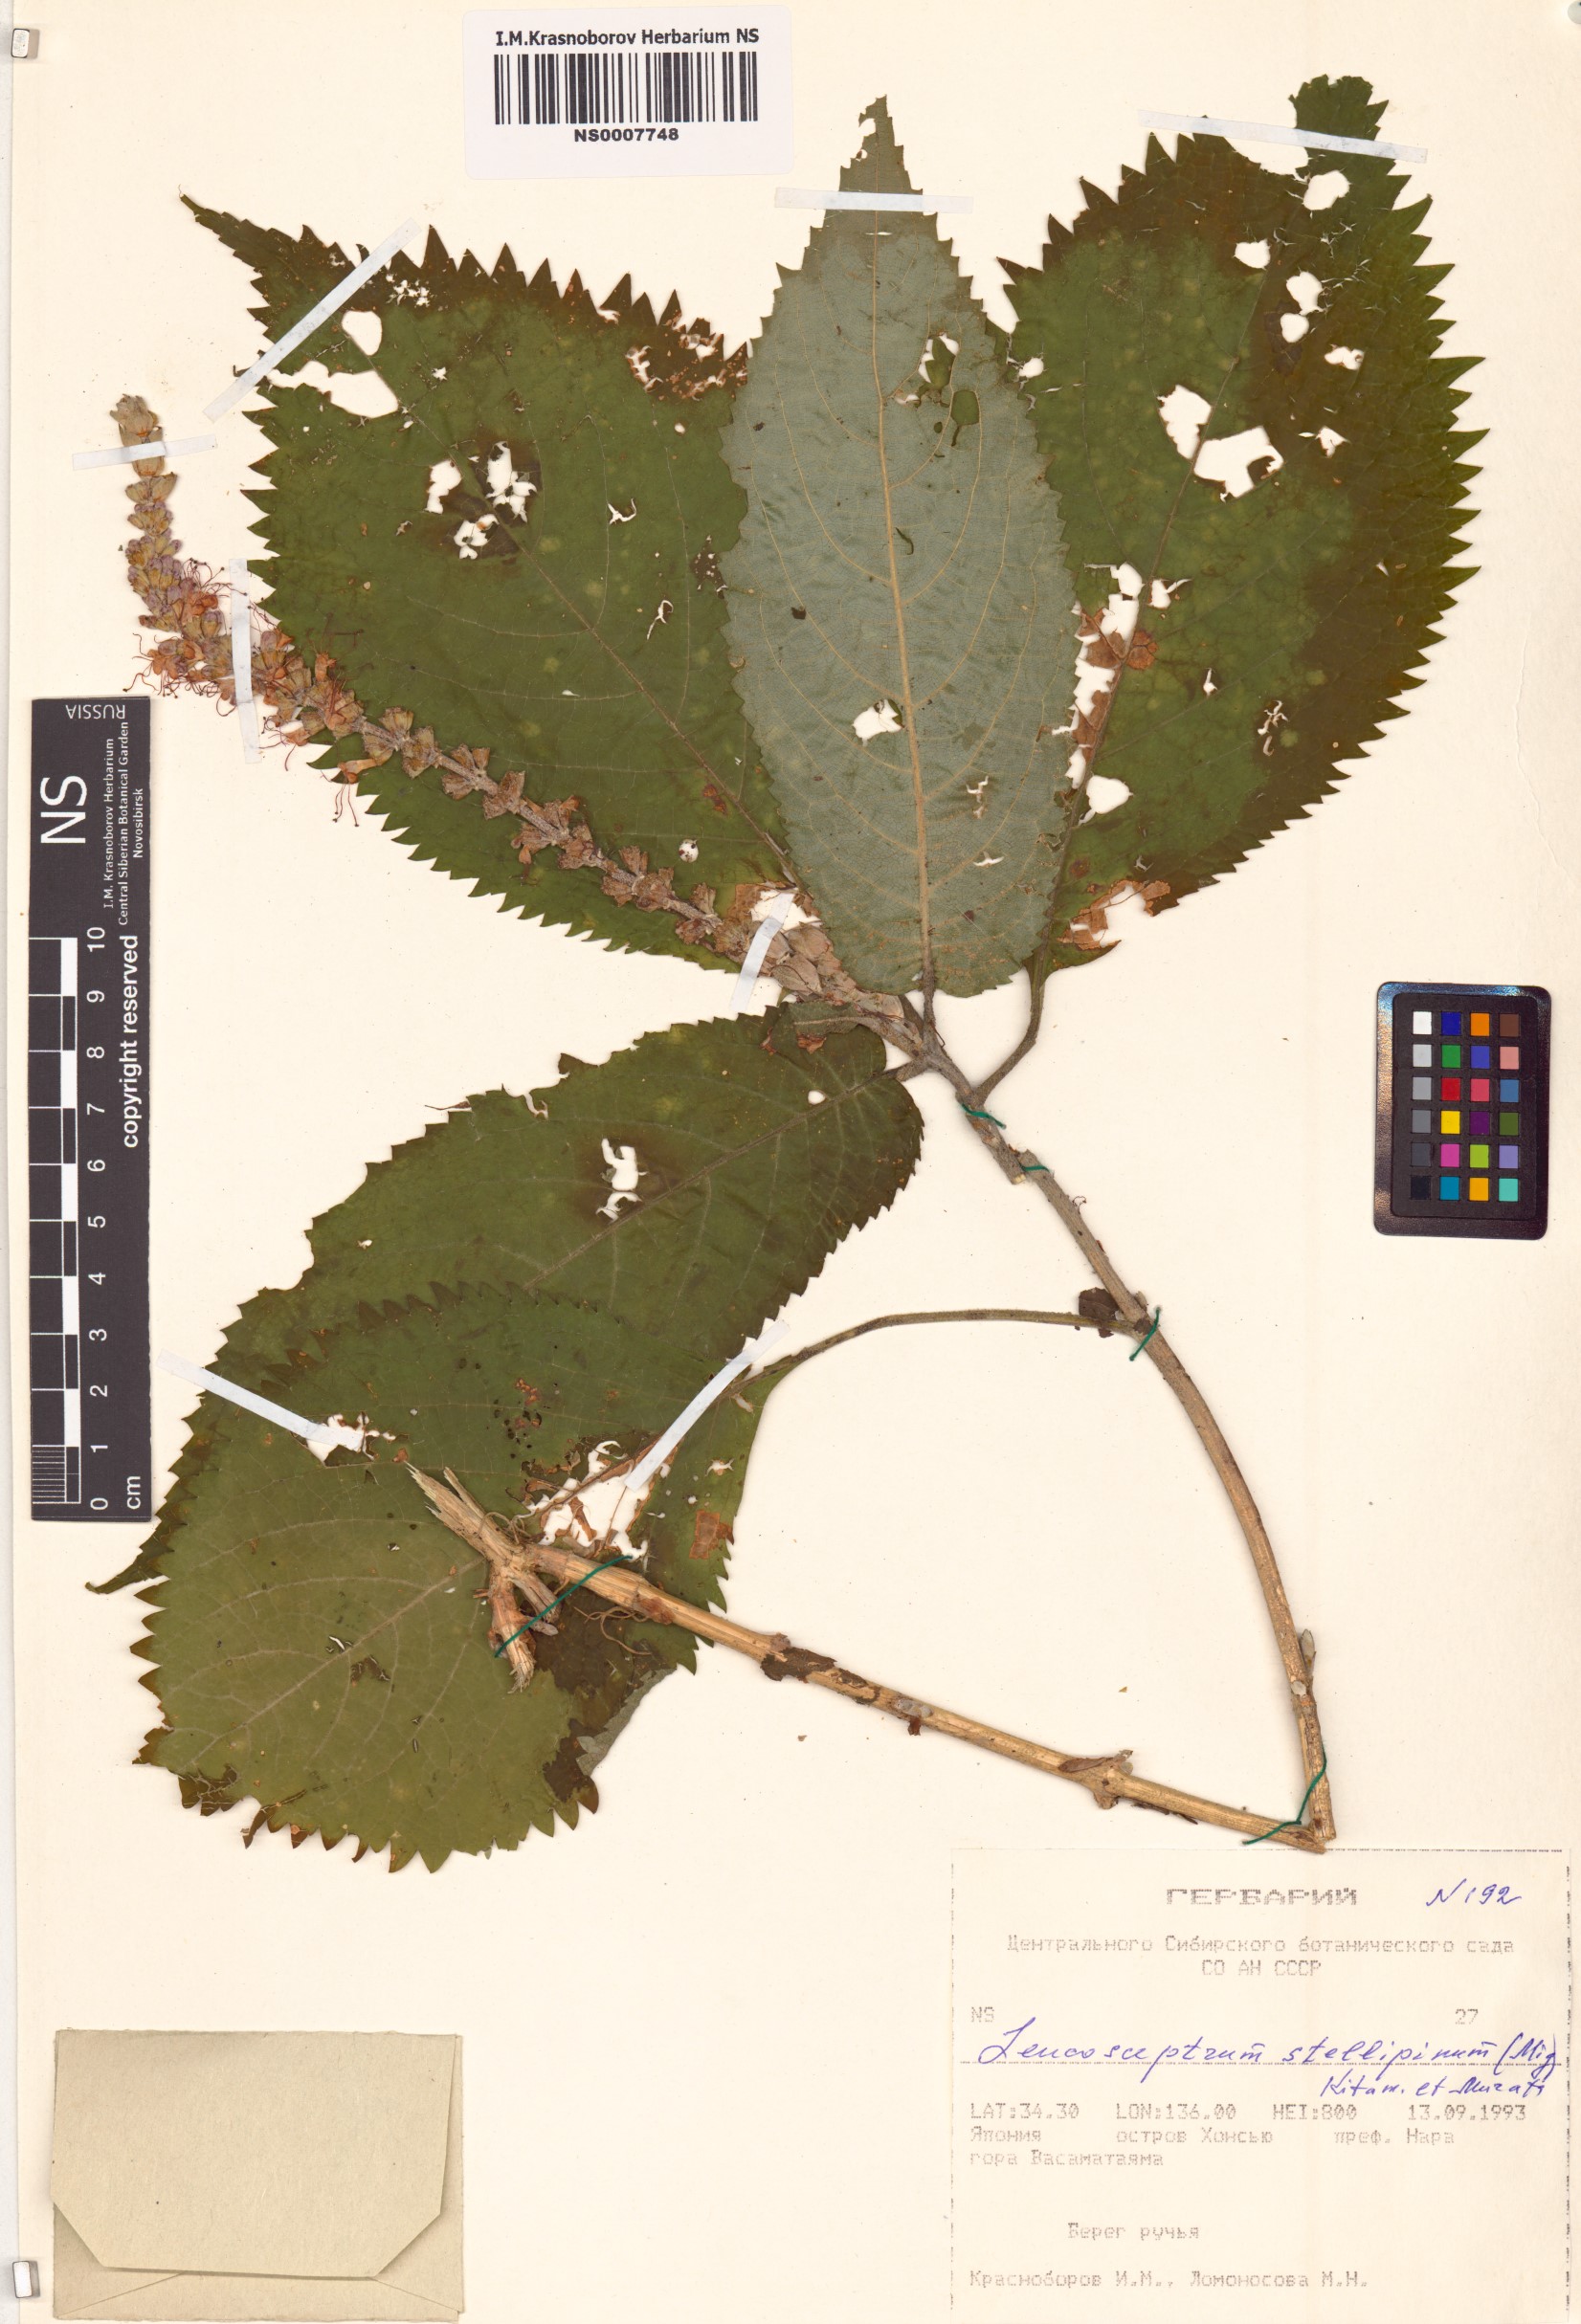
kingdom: Plantae
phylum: Tracheophyta
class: Magnoliopsida
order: Lamiales
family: Lamiaceae
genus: Comanthosphace
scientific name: Comanthosphace stellipila
